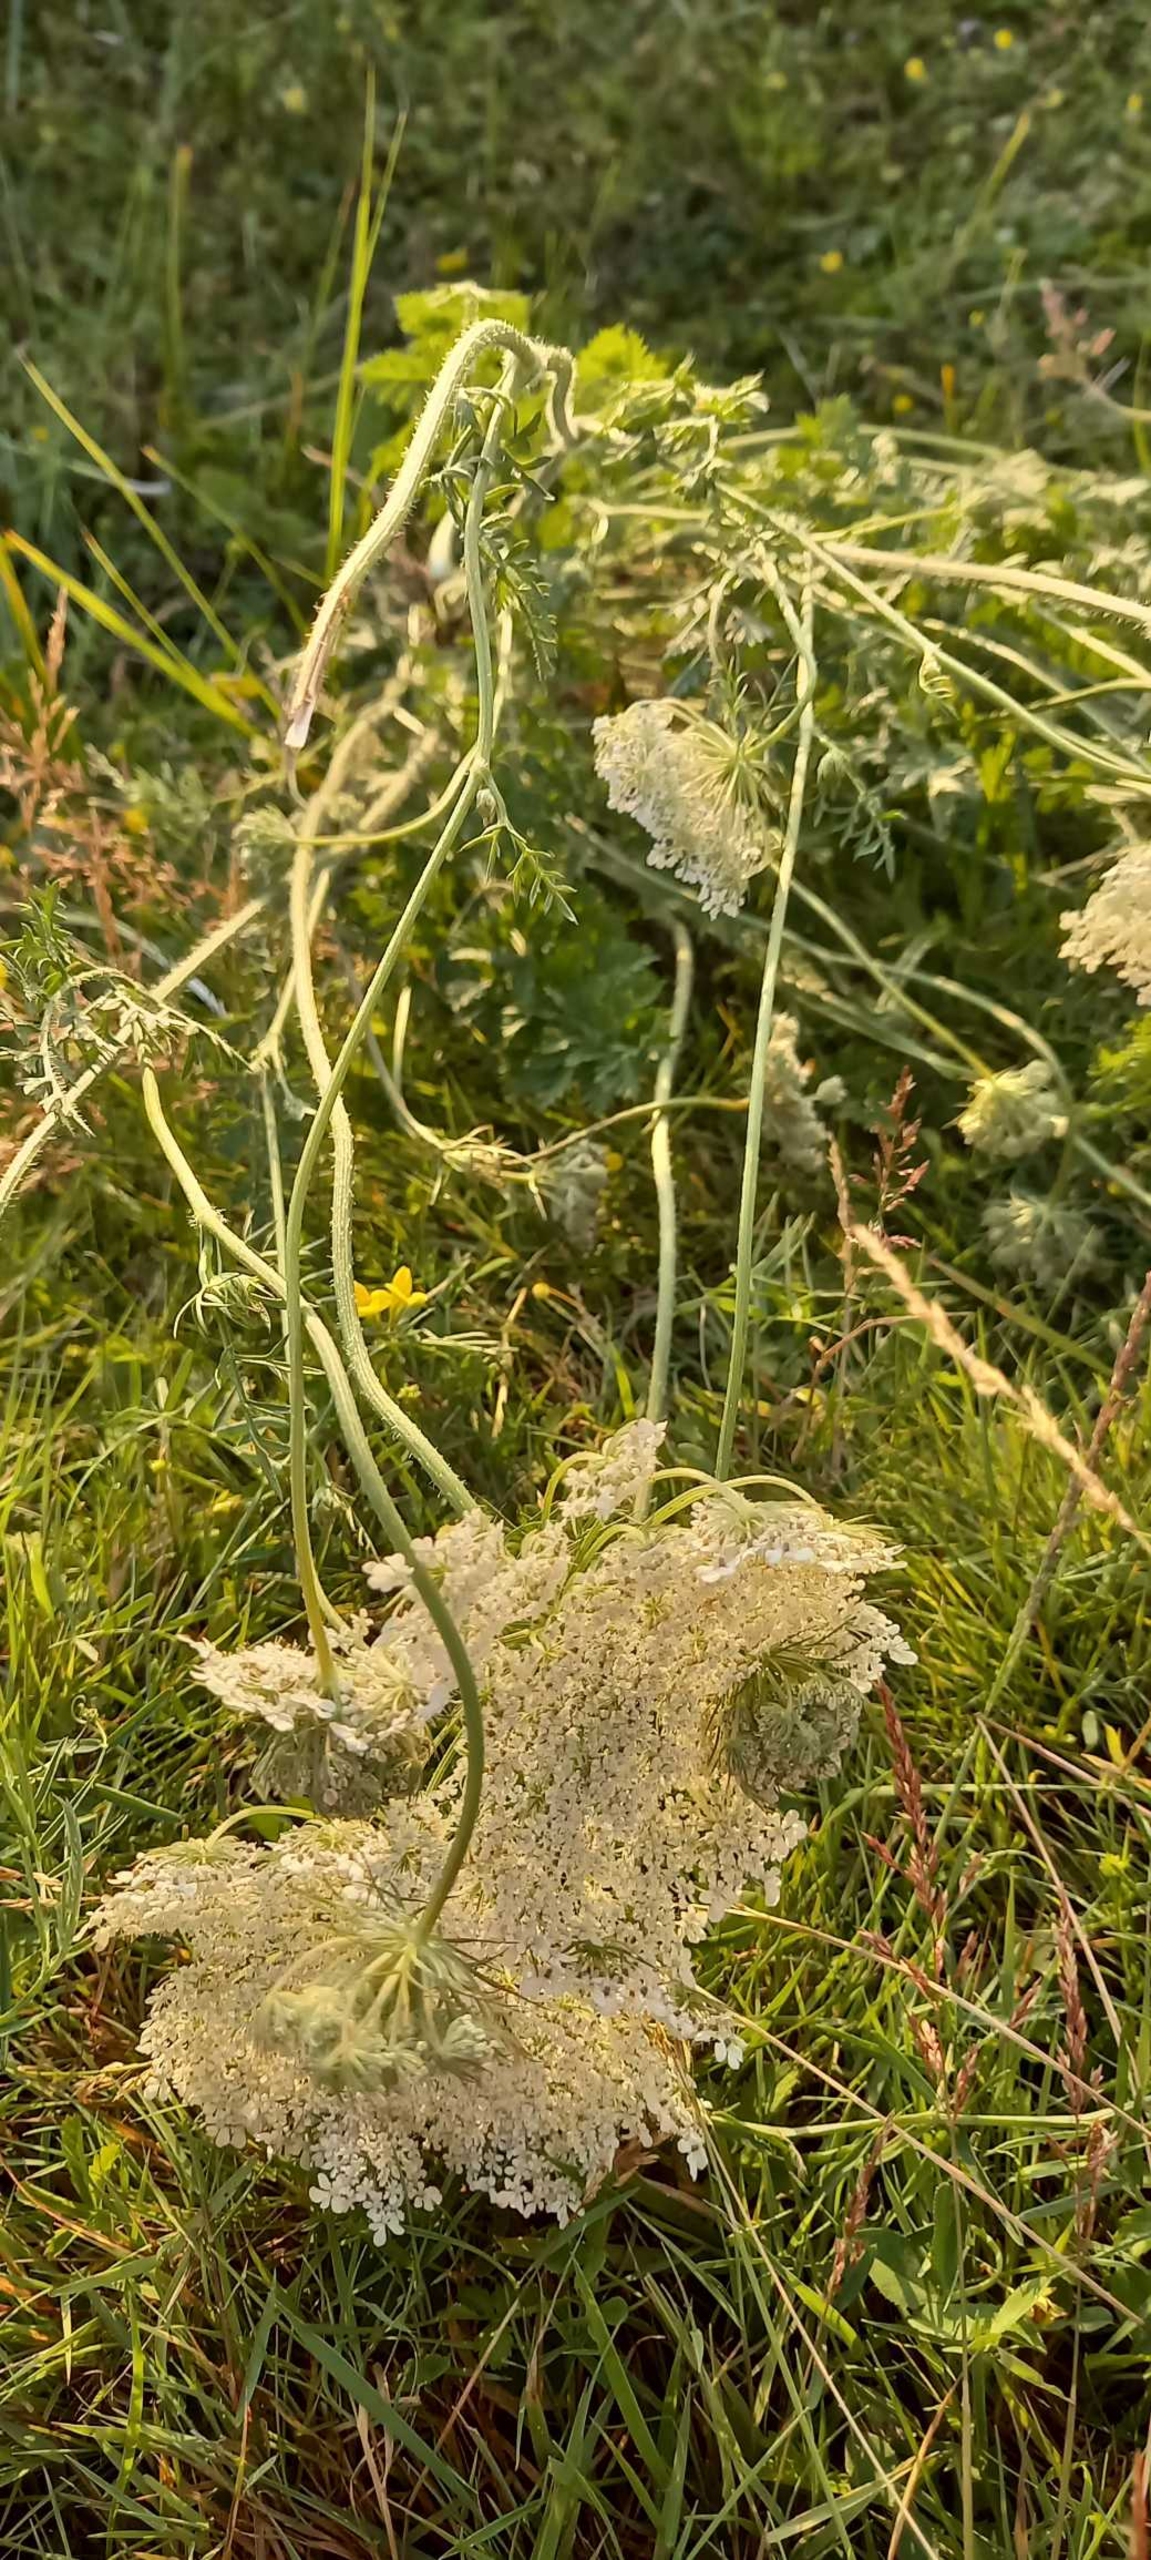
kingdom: Plantae
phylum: Tracheophyta
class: Magnoliopsida
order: Apiales
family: Apiaceae
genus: Daucus
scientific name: Daucus carota
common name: Gulerod
